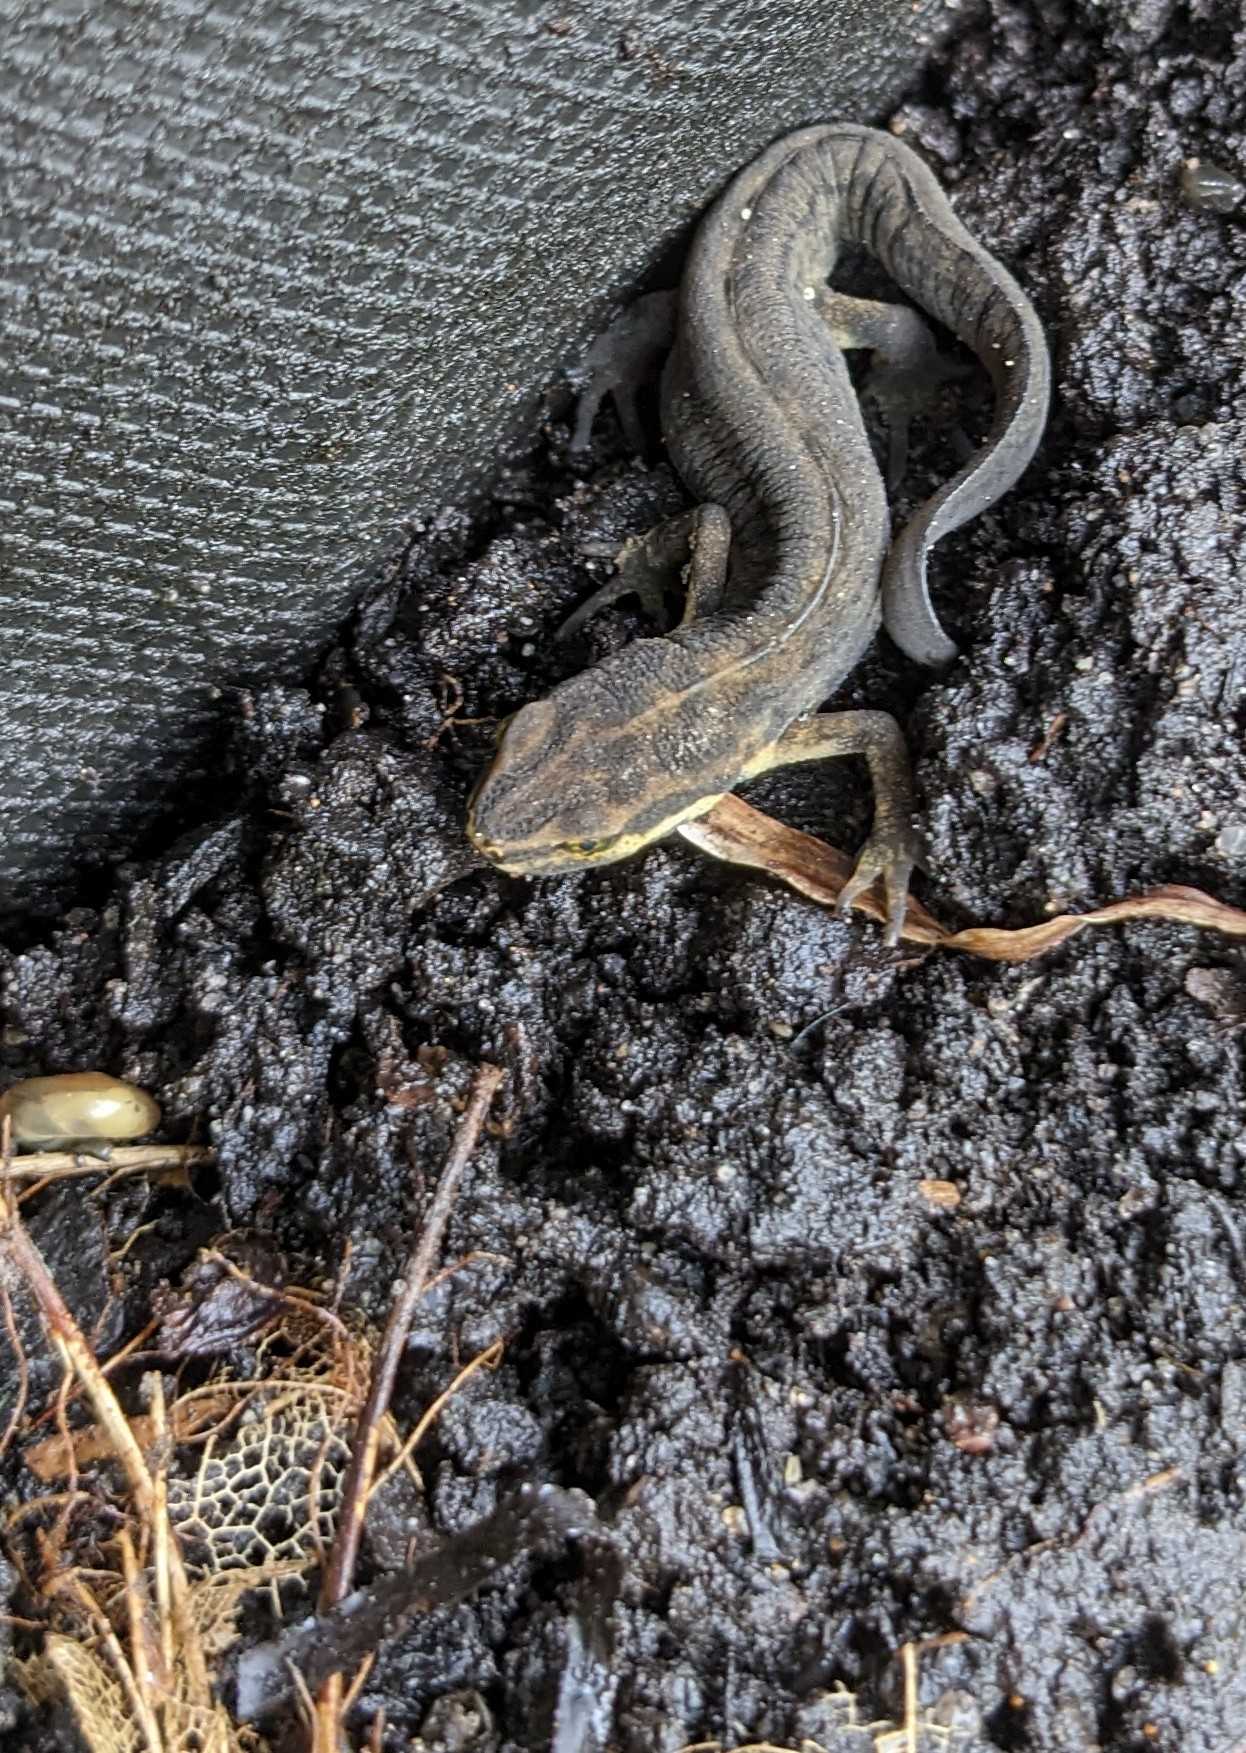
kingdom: Animalia
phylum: Chordata
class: Amphibia
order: Caudata
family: Salamandridae
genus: Lissotriton
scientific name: Lissotriton vulgaris
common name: Lille vandsalamander
